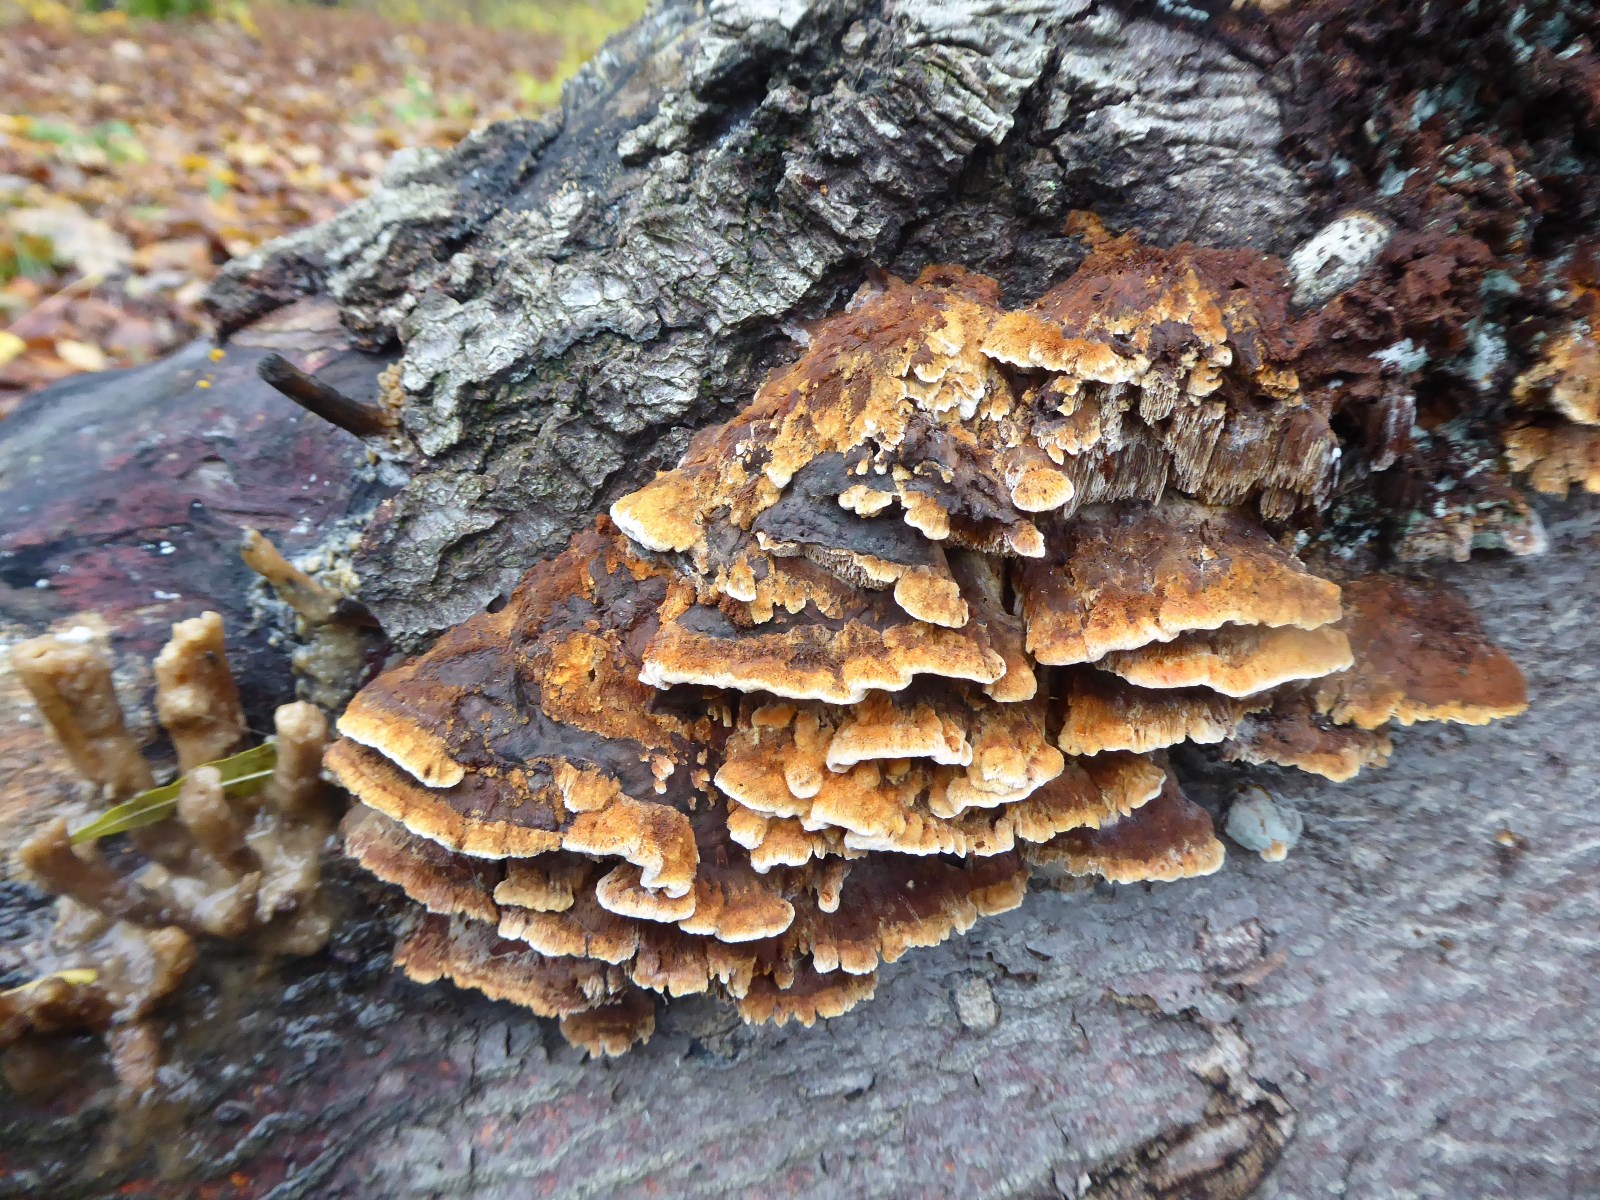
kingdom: Fungi
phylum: Basidiomycota
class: Agaricomycetes
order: Hymenochaetales
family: Hymenochaetaceae
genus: Inonotus
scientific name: Inonotus cuticularis
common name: kroghåret spejlporesvamp
